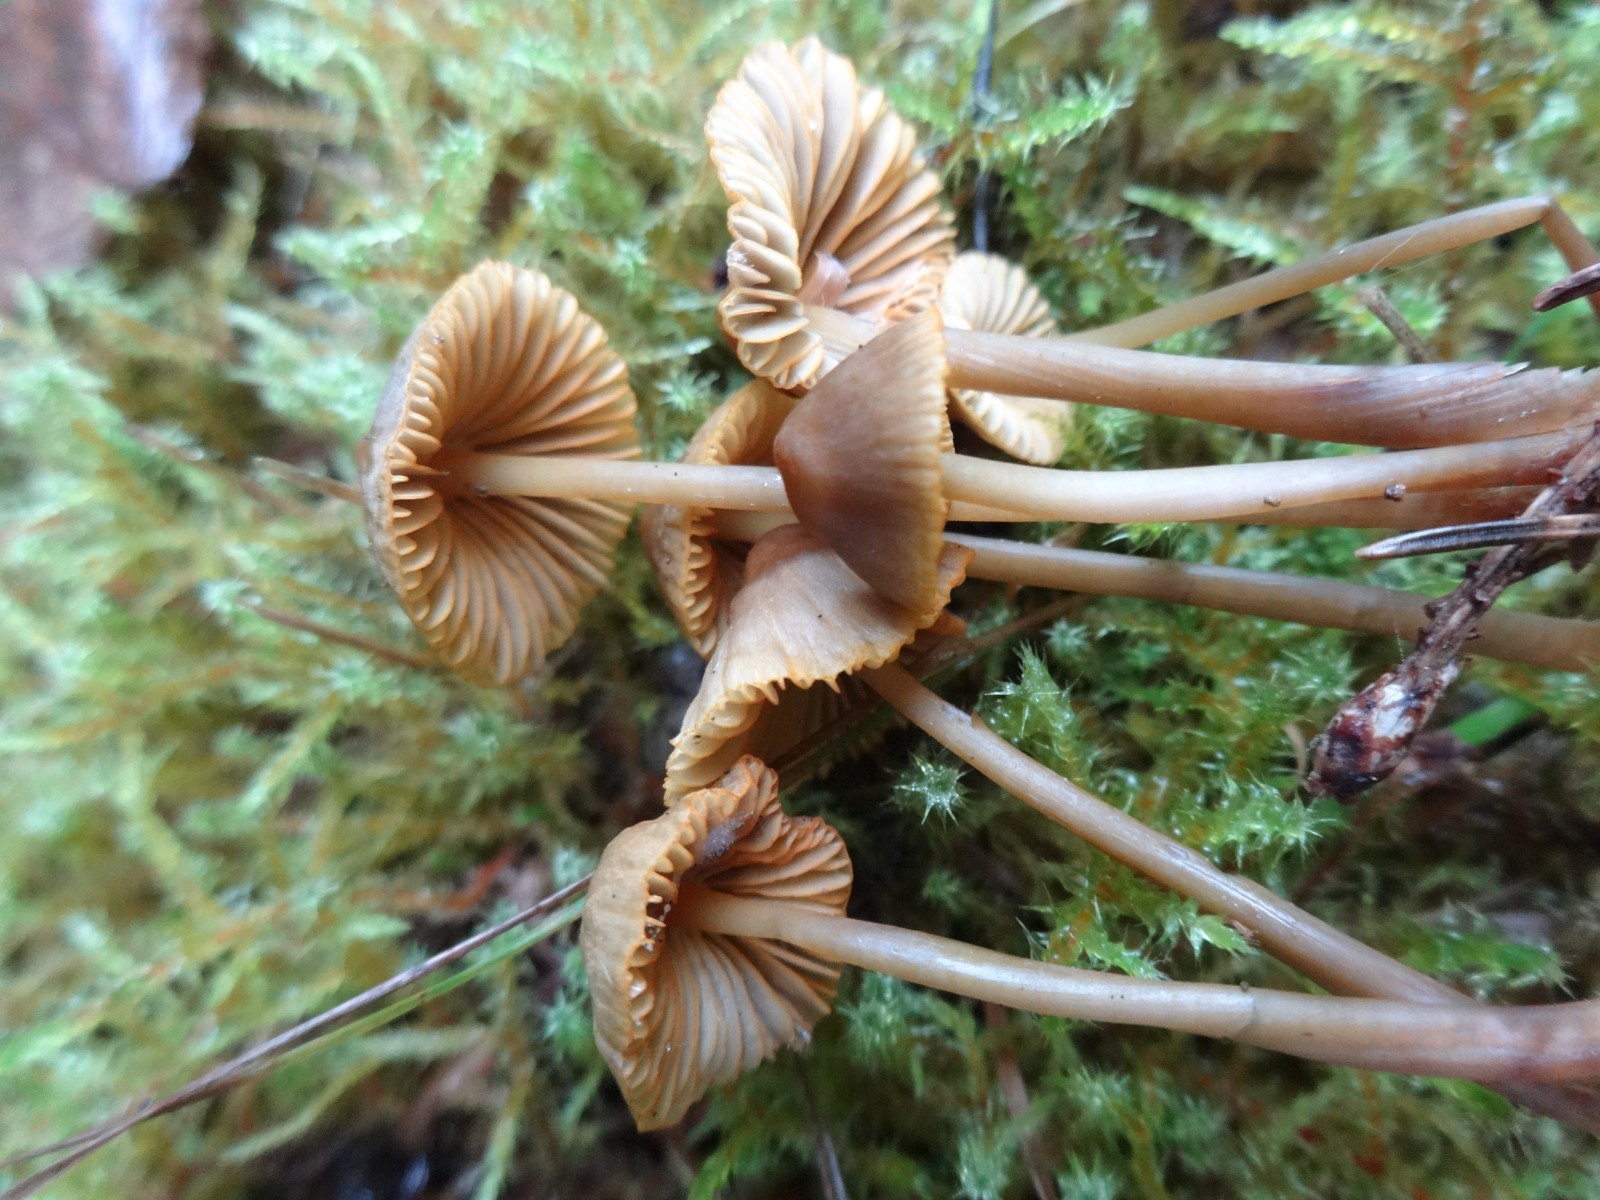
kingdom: Fungi
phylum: Basidiomycota
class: Agaricomycetes
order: Agaricales
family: Mycenaceae
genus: Mycena
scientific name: Mycena aurantiomarginata
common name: orangeægget huesvamp
